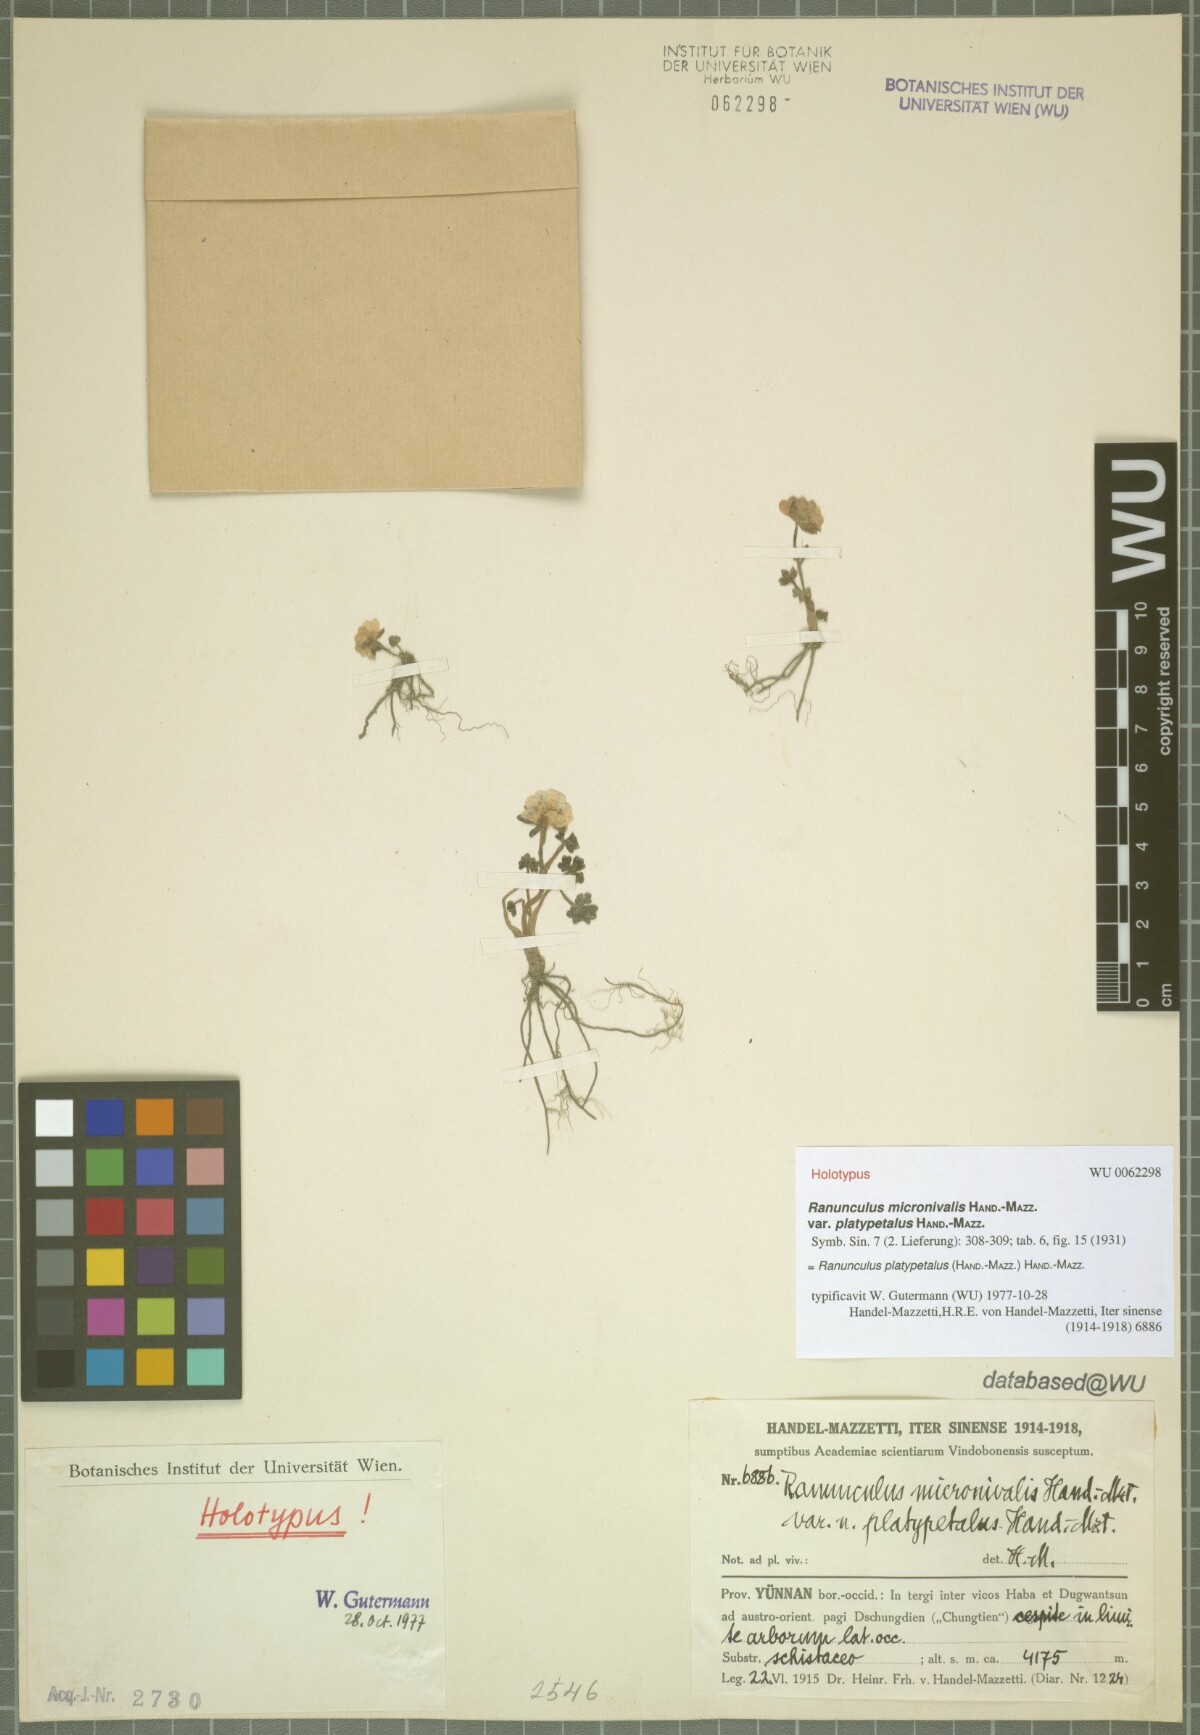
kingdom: Plantae
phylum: Tracheophyta
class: Magnoliopsida
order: Ranunculales
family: Ranunculaceae
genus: Ranunculus
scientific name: Ranunculus platypetalus
